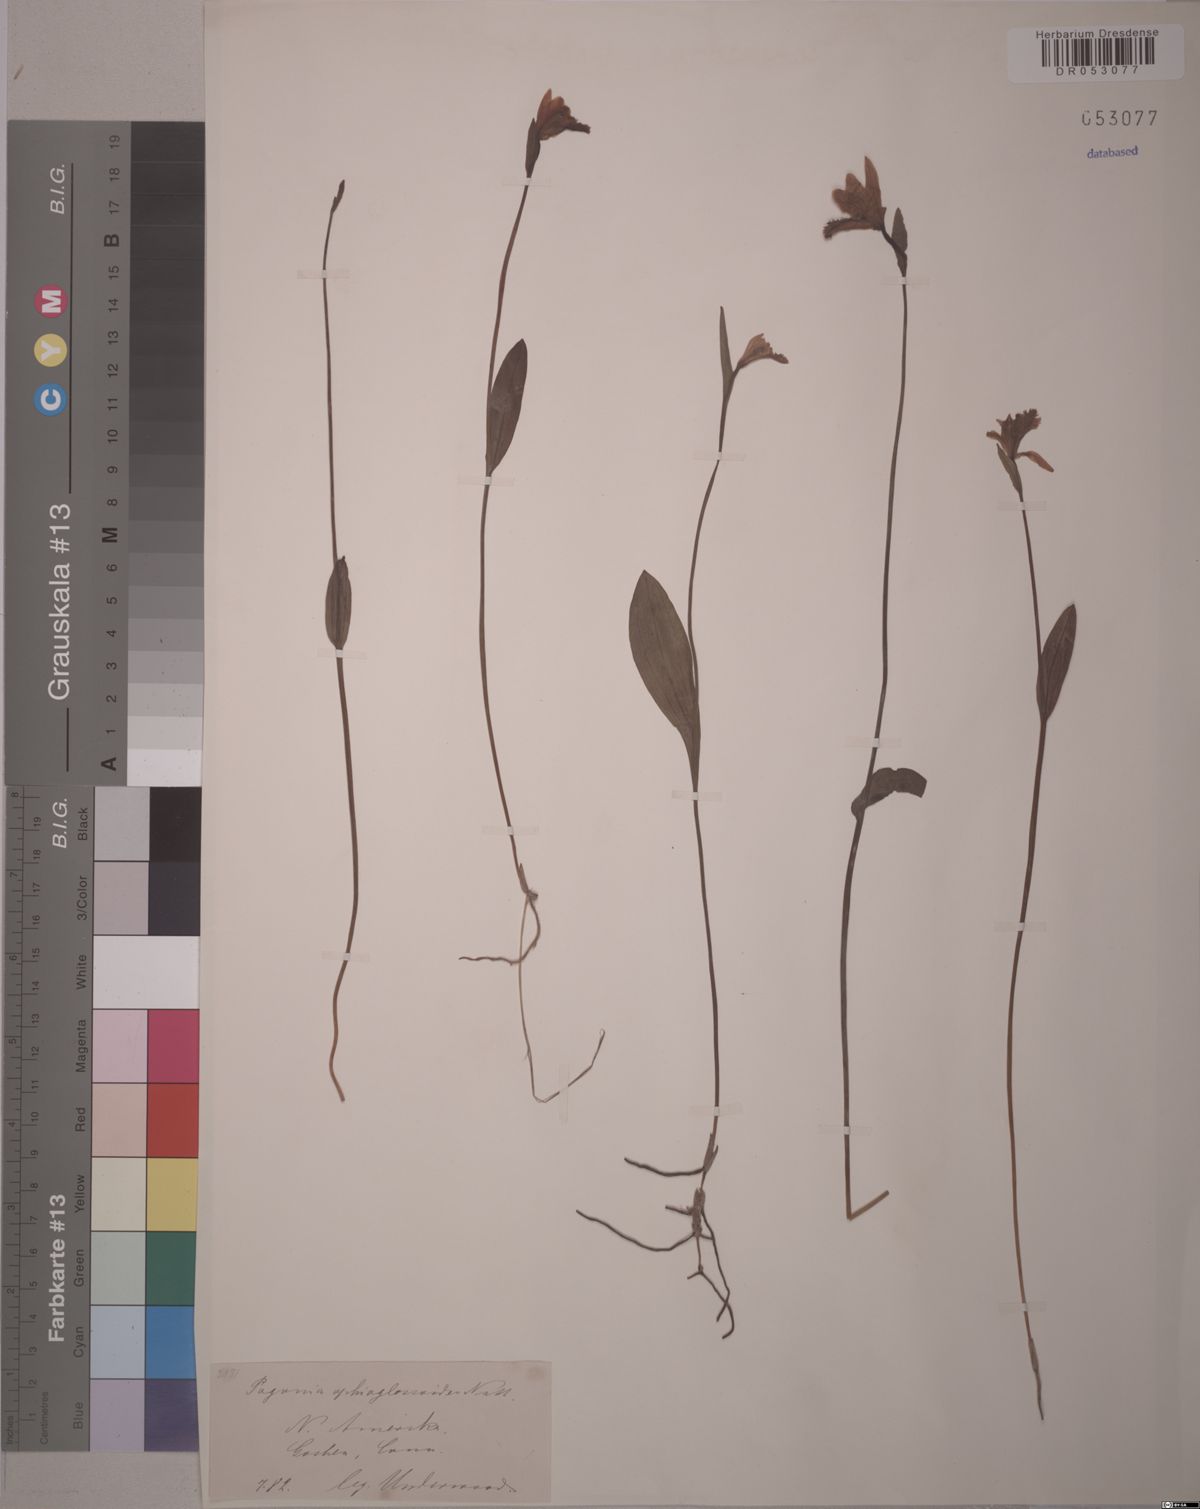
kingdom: Plantae
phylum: Tracheophyta
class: Liliopsida
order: Asparagales
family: Orchidaceae
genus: Pogonia
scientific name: Pogonia ophioglossoides
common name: Rose pogonia
